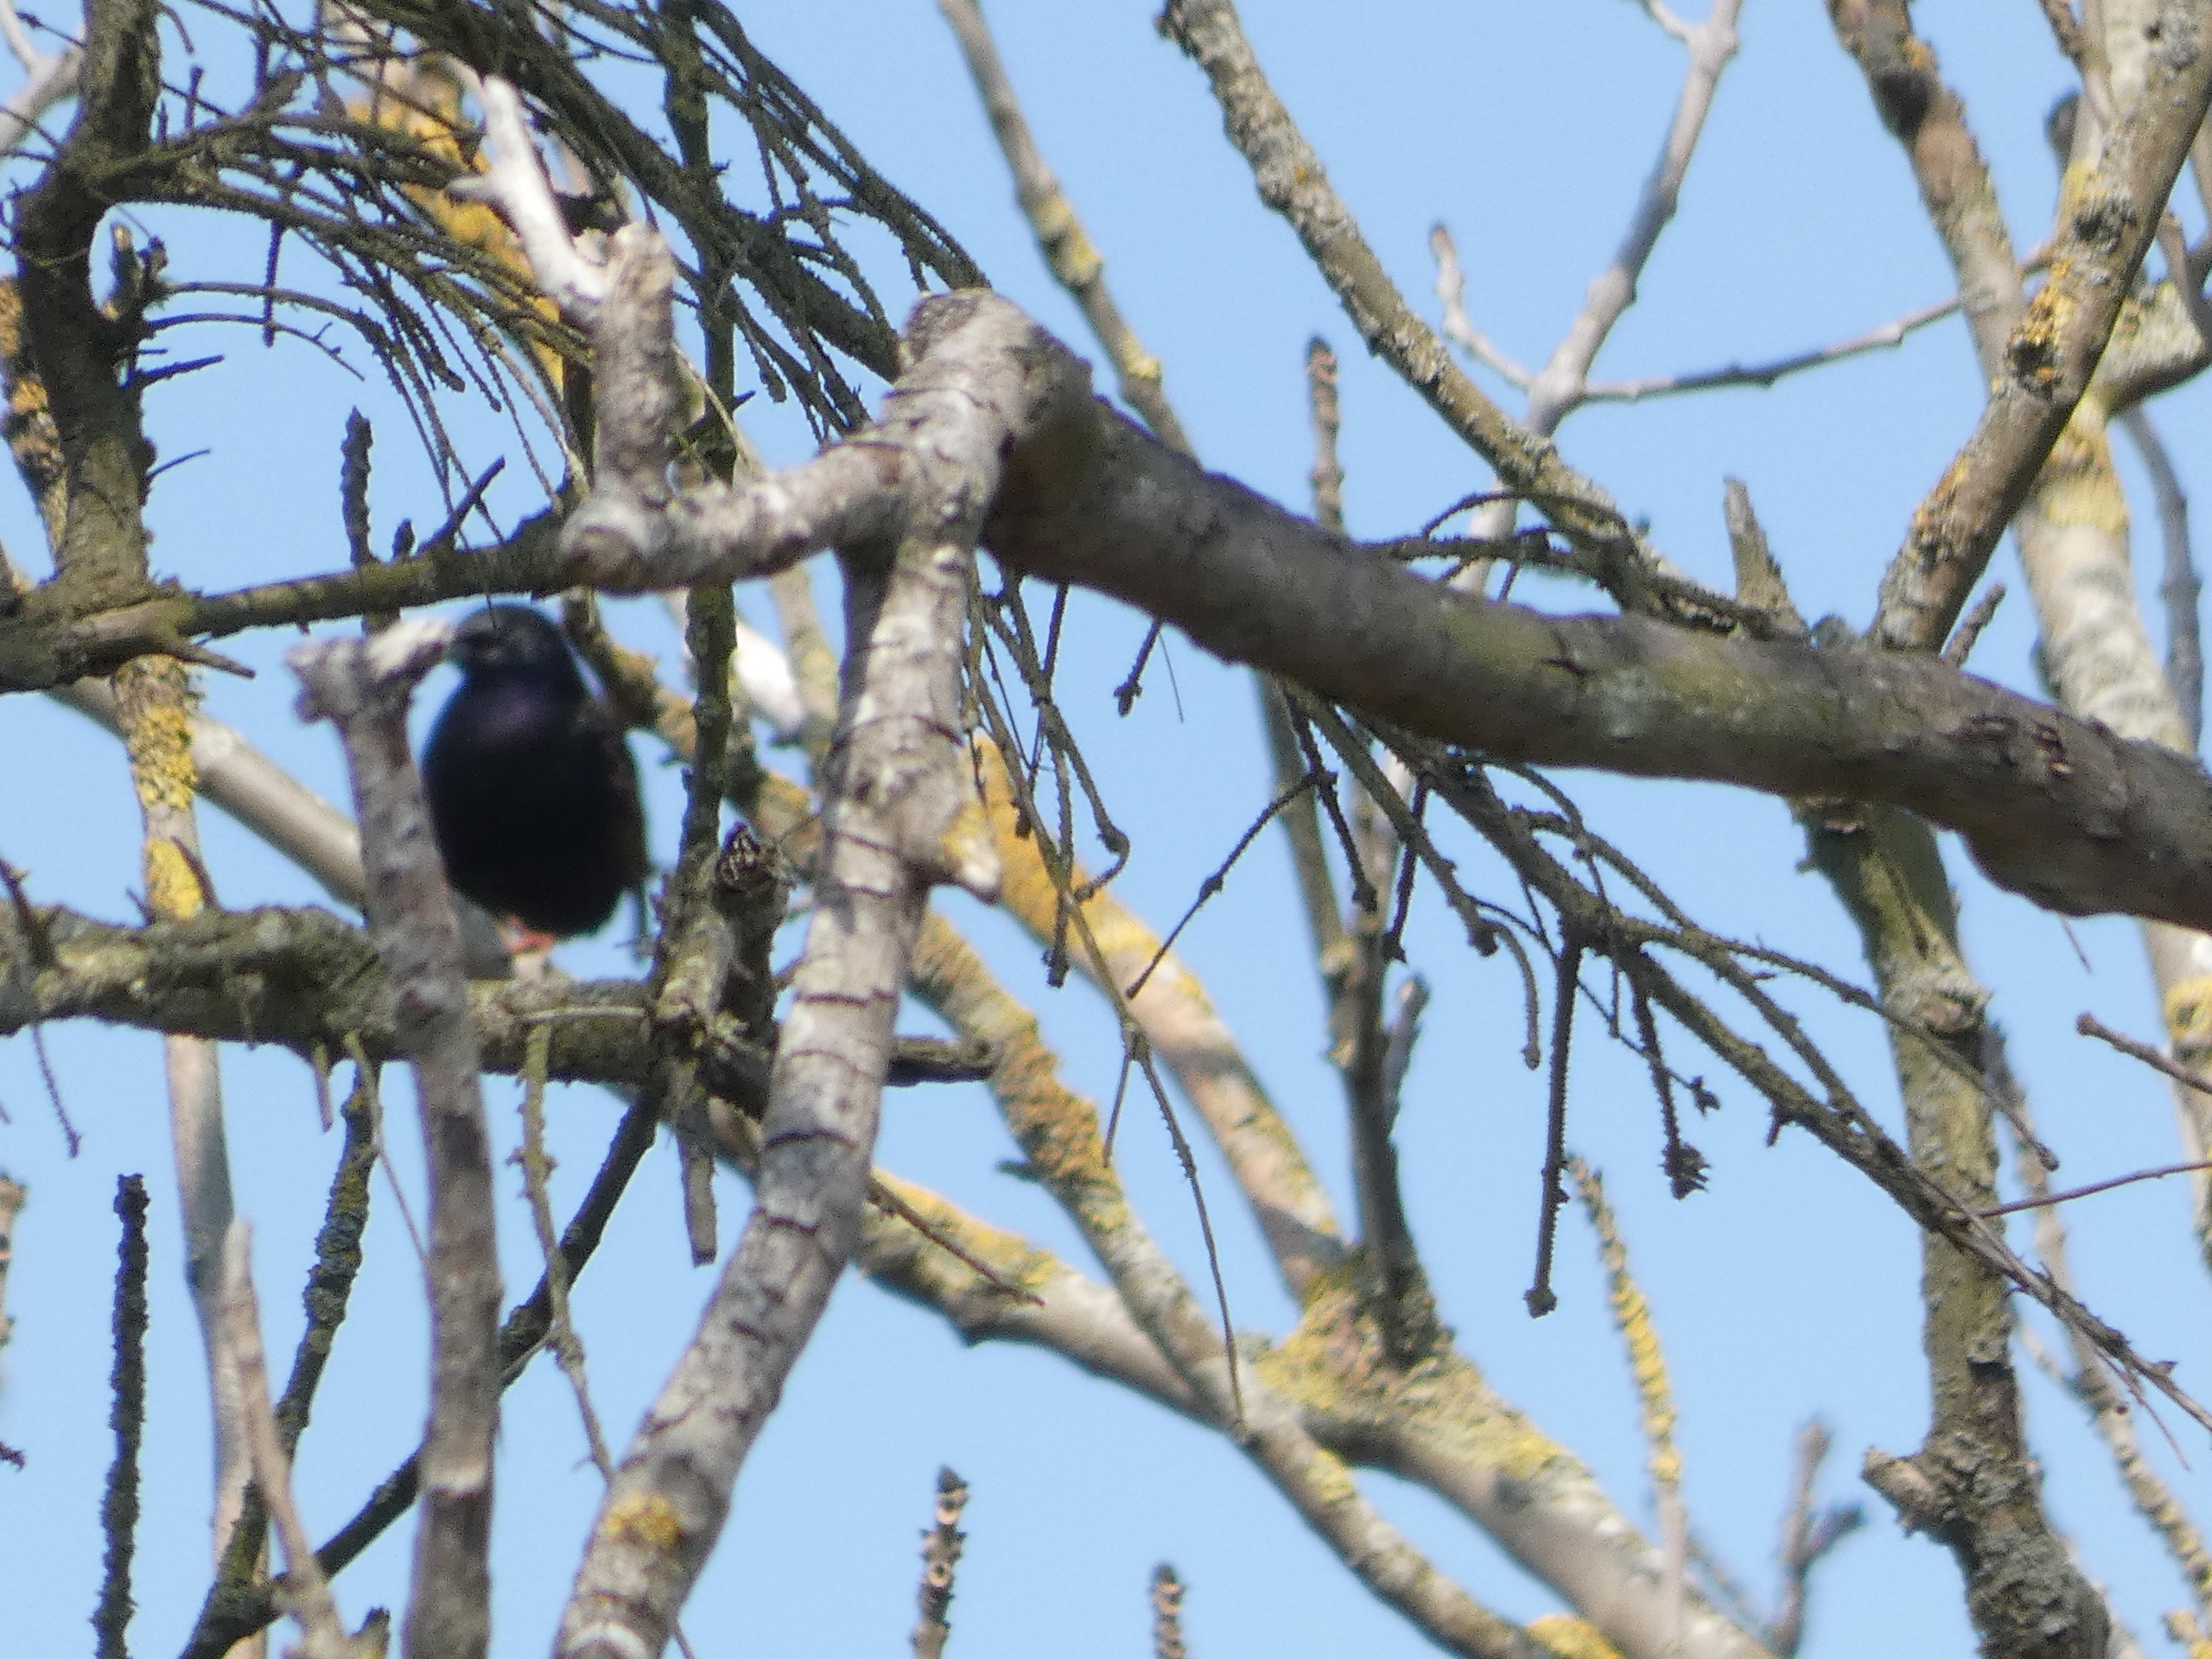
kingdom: Animalia
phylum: Chordata
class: Aves
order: Passeriformes
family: Sturnidae
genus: Sturnus
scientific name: Sturnus vulgaris
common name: Stær
